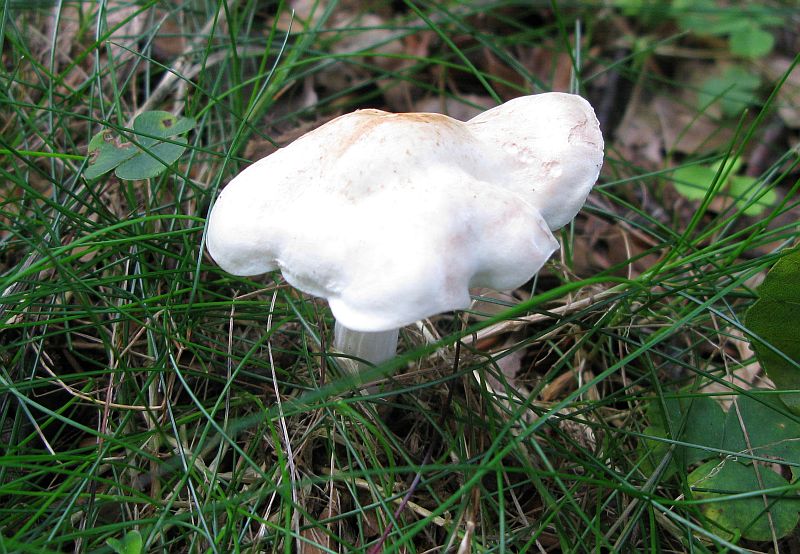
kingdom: Fungi
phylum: Basidiomycota
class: Agaricomycetes
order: Agaricales
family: Omphalotaceae
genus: Rhodocollybia
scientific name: Rhodocollybia maculata
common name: plettet fladhat
